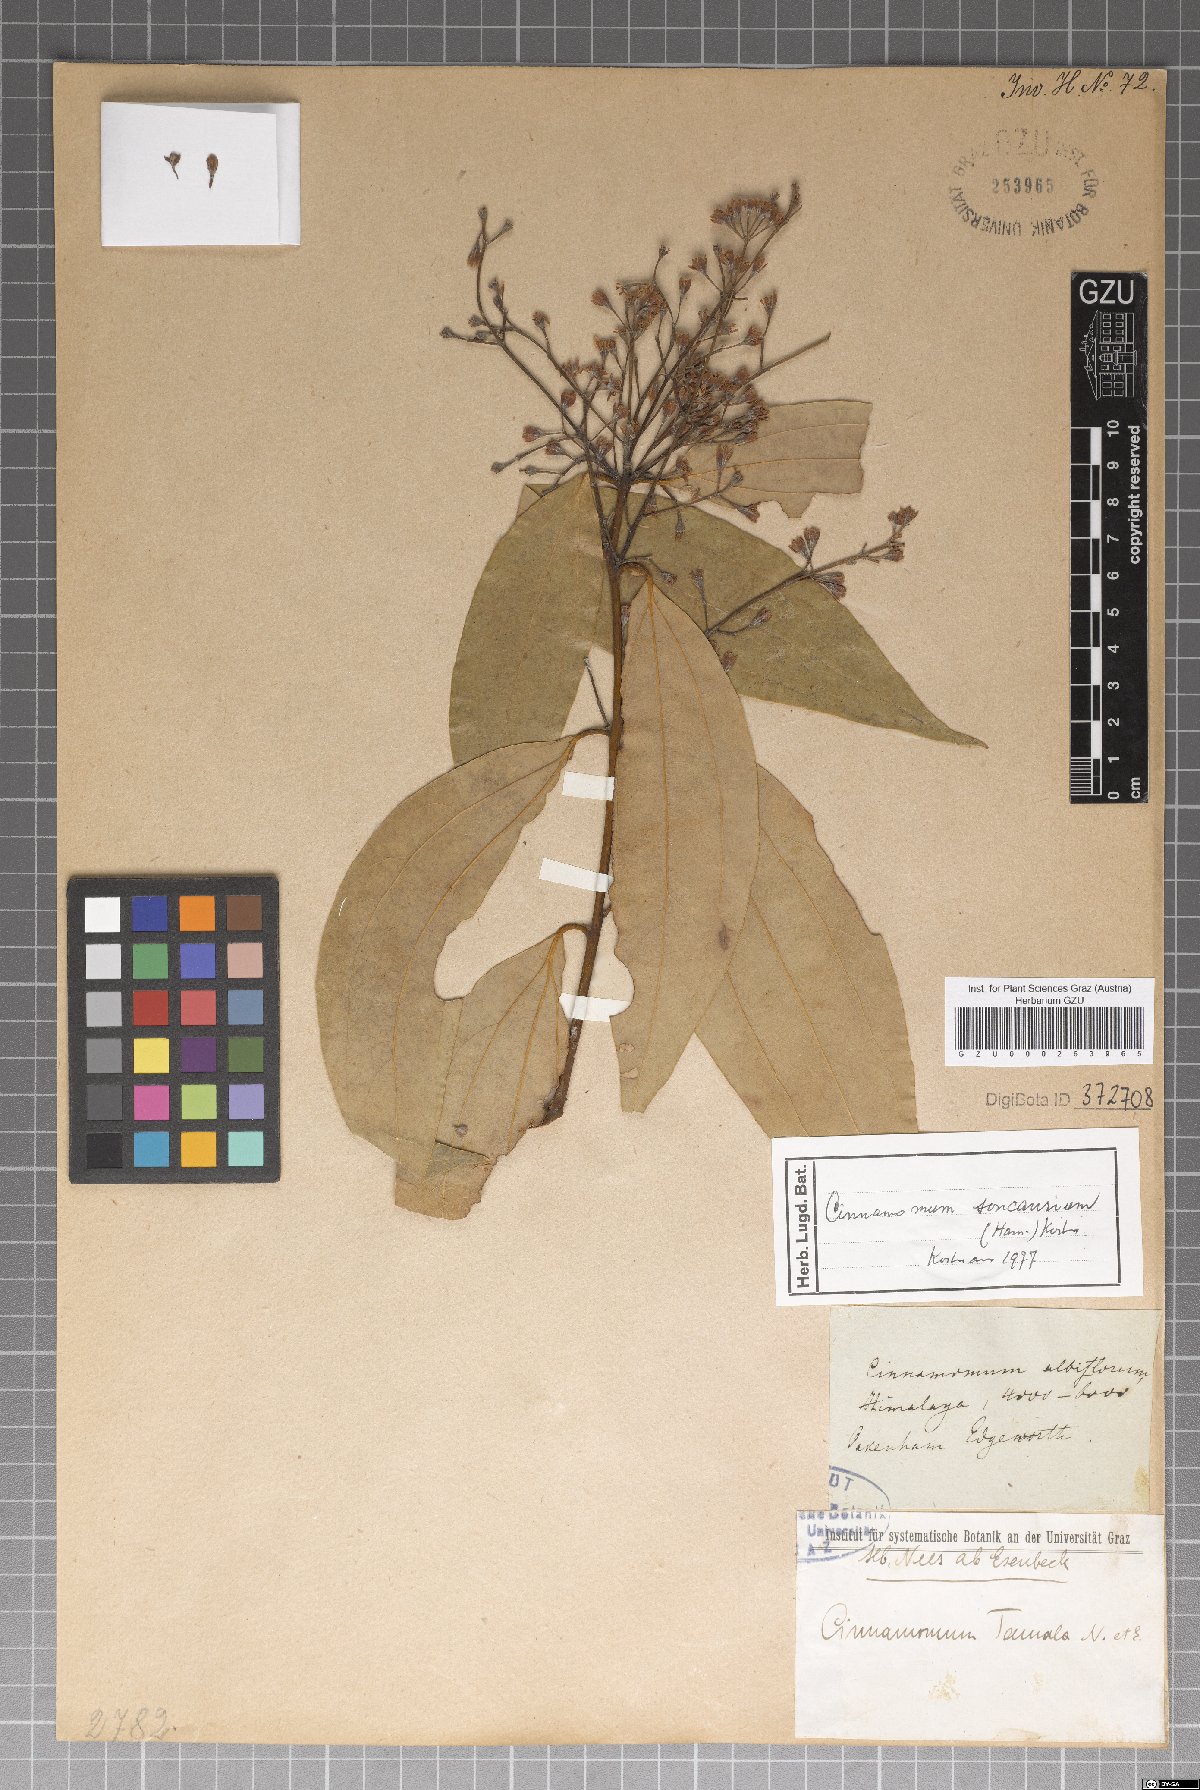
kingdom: Plantae
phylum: Tracheophyta
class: Magnoliopsida
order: Laurales
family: Lauraceae
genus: Cinnamomum
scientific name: Cinnamomum bejolghota
